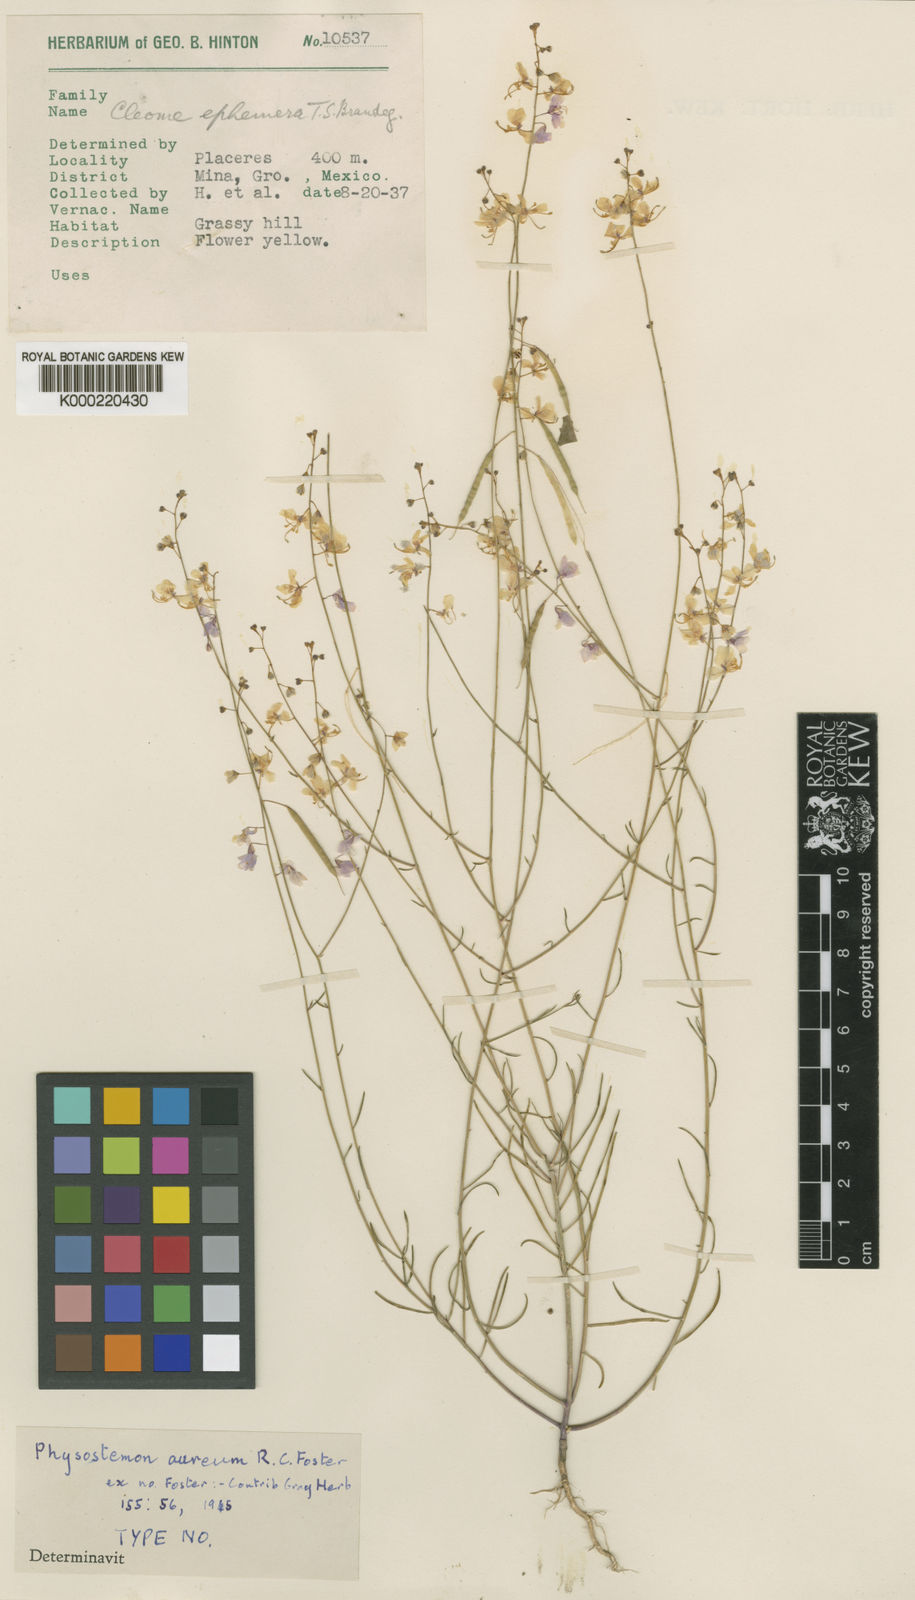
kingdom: Plantae
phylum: Tracheophyta
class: Magnoliopsida
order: Brassicales
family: Cleomaceae
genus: Physostemon
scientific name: Physostemon aureus
